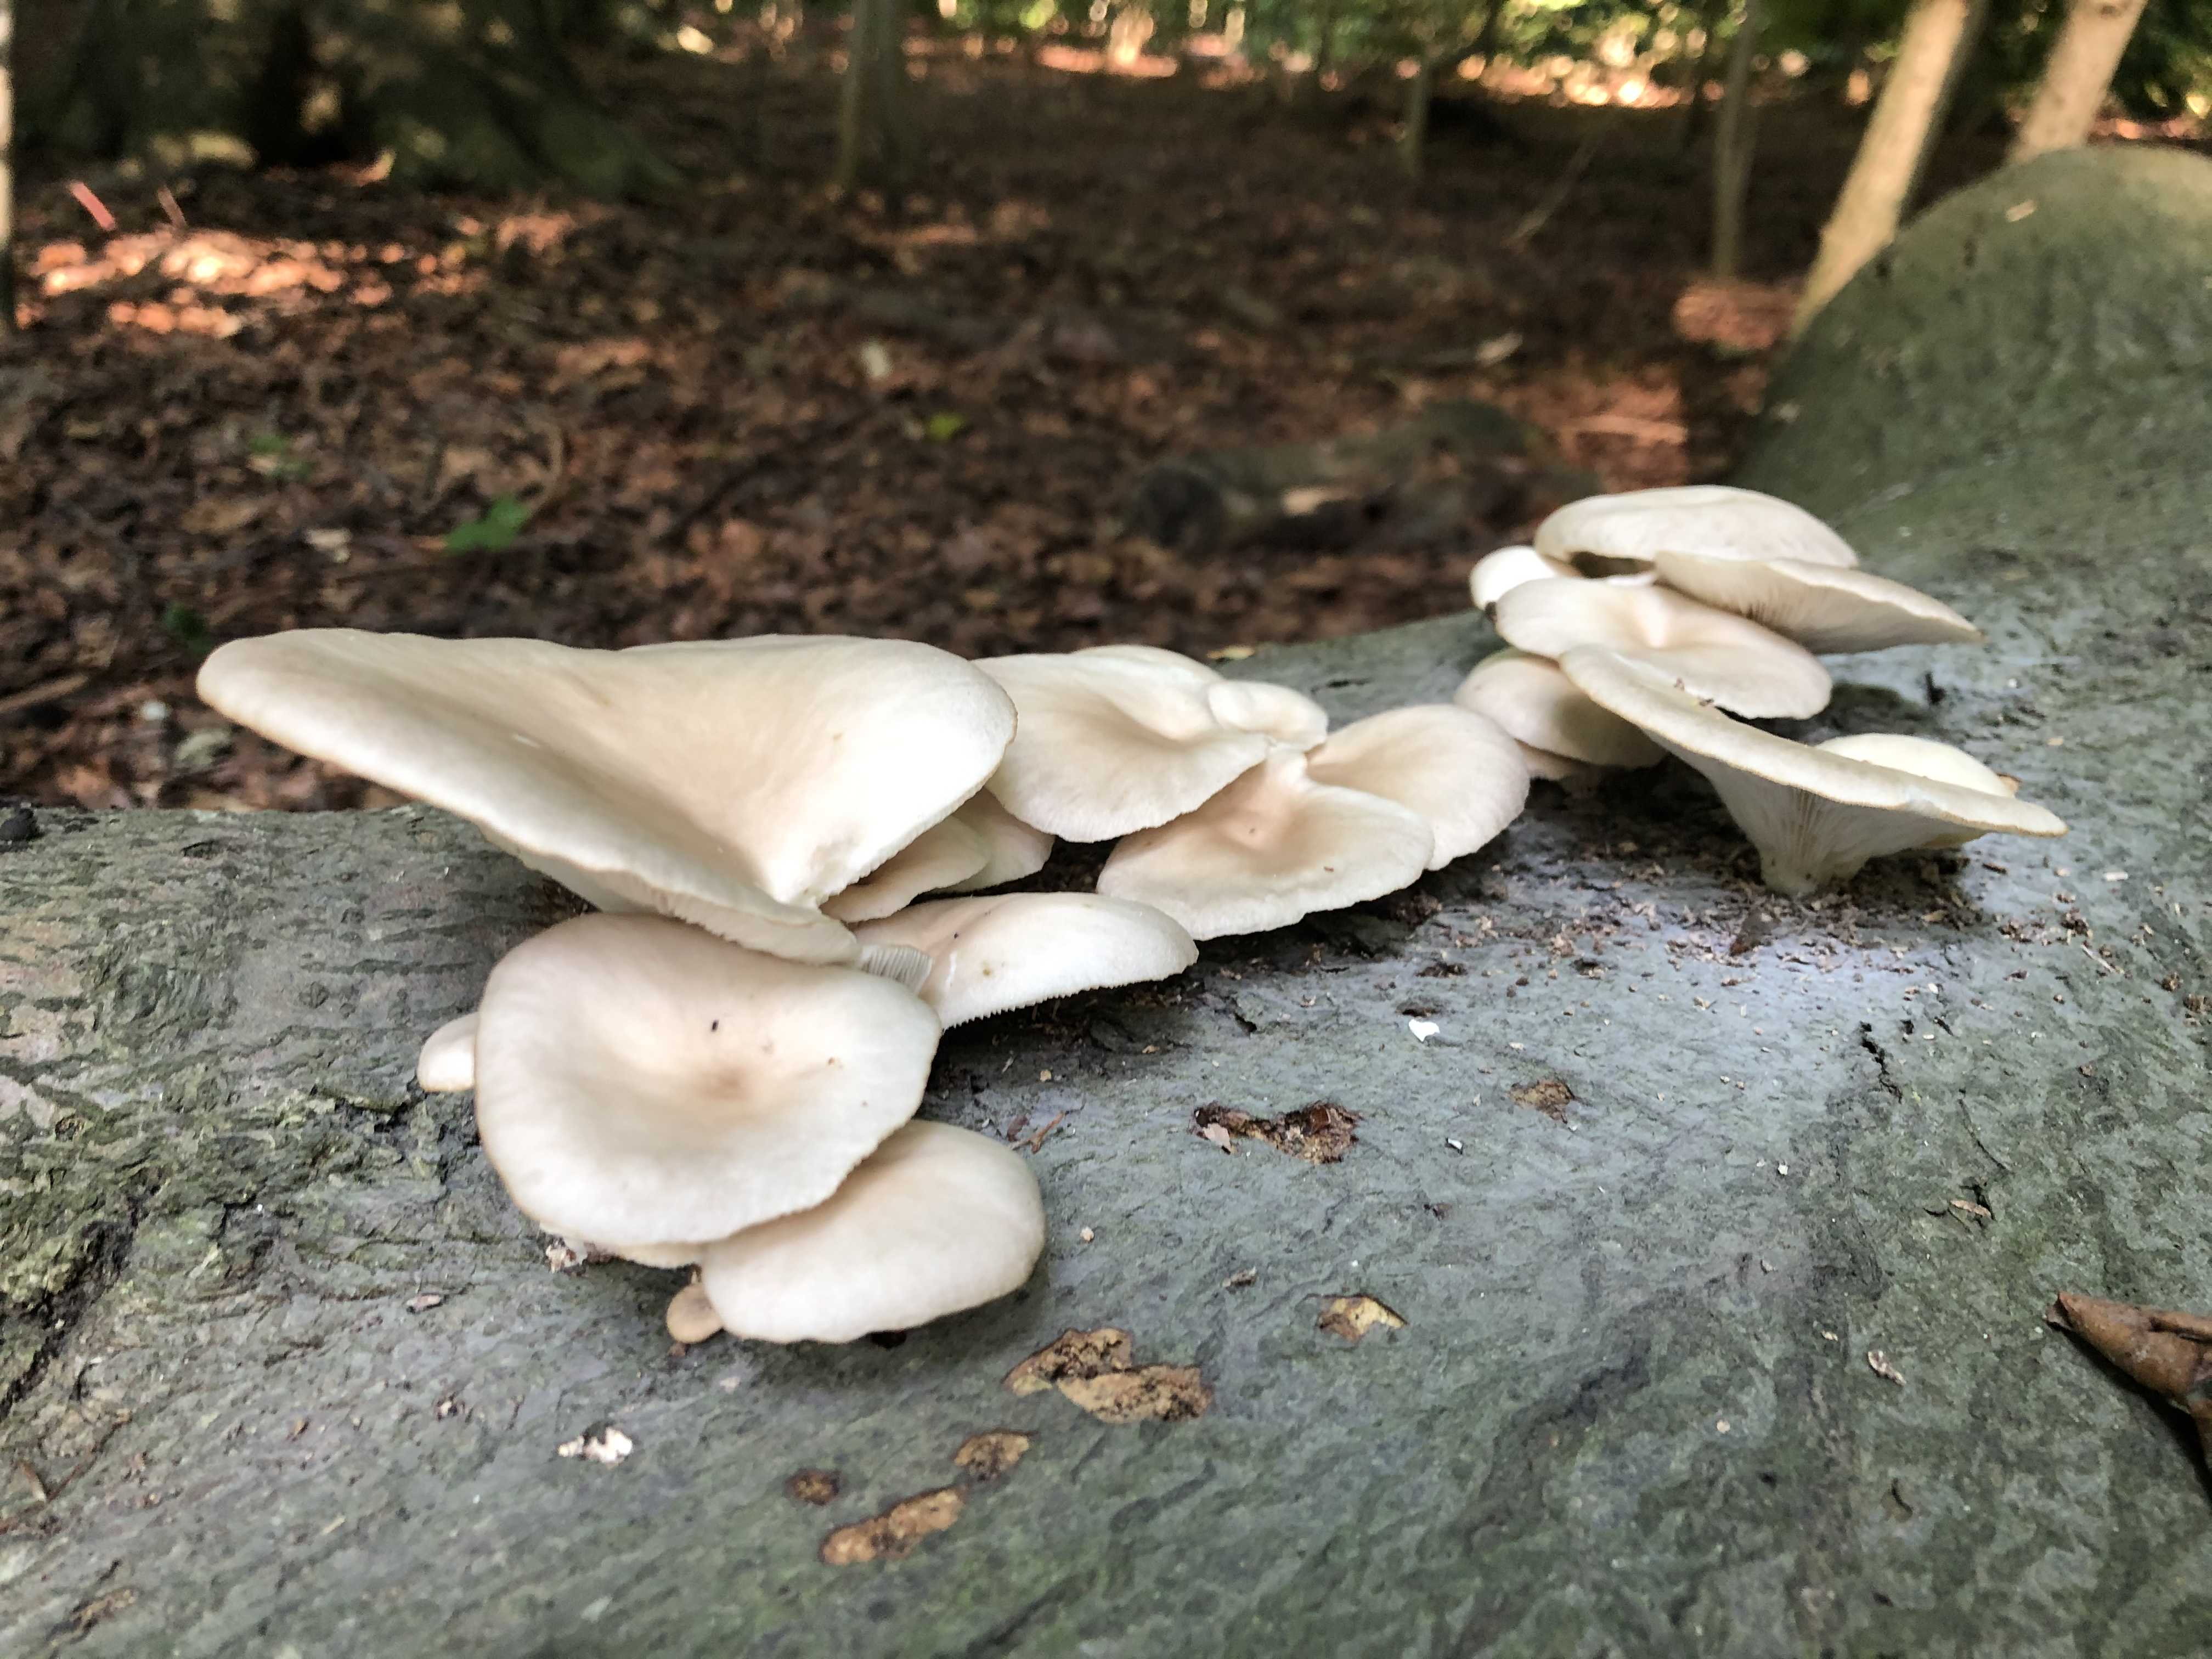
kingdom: Fungi
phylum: Basidiomycota
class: Agaricomycetes
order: Agaricales
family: Pleurotaceae
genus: Pleurotus
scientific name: Pleurotus pulmonarius
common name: sommer-østershat
